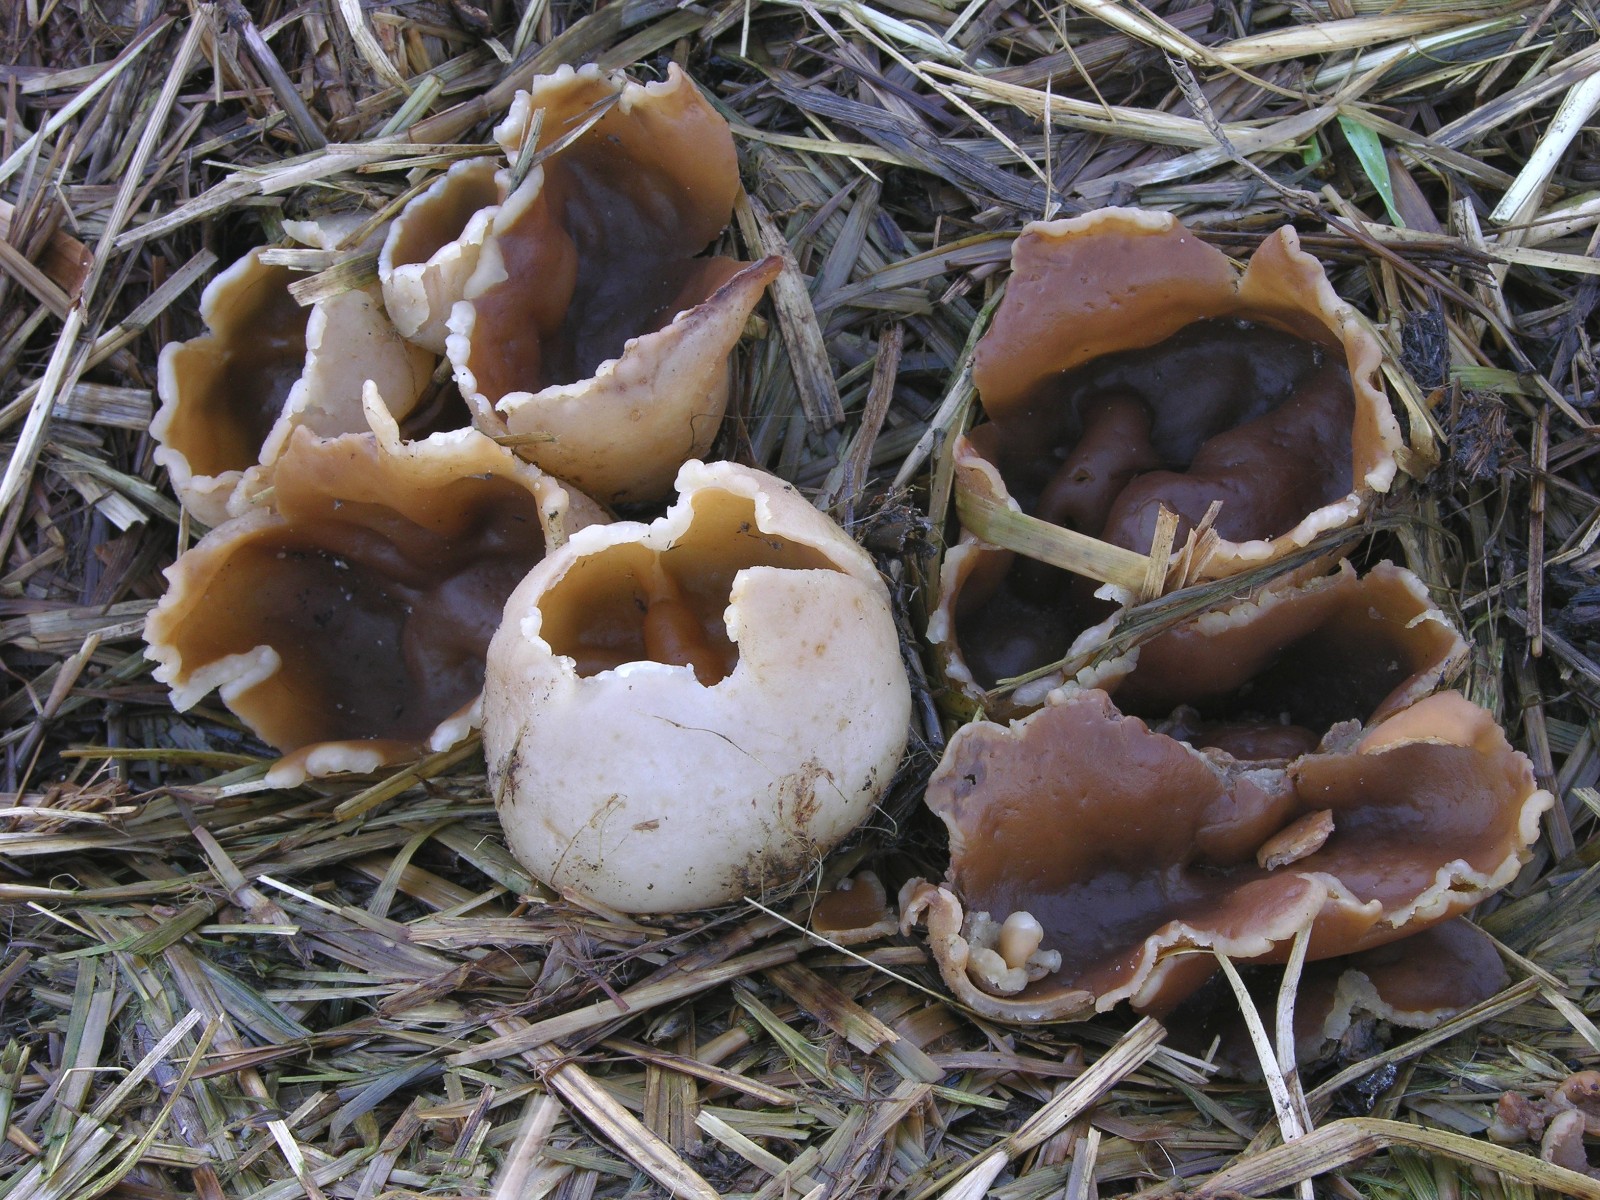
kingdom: Fungi
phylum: Ascomycota
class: Pezizomycetes
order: Pezizales
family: Pezizaceae
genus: Peziza
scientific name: Peziza vesiculosa
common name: blære-bægersvamp
